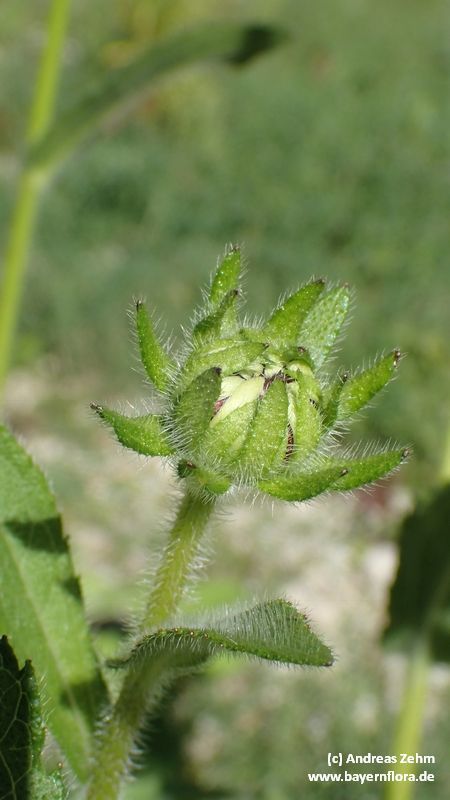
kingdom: Plantae
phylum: Tracheophyta
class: Magnoliopsida
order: Asterales
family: Asteraceae
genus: Rudbeckia
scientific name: Rudbeckia fulgida
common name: Perennial coneflower
